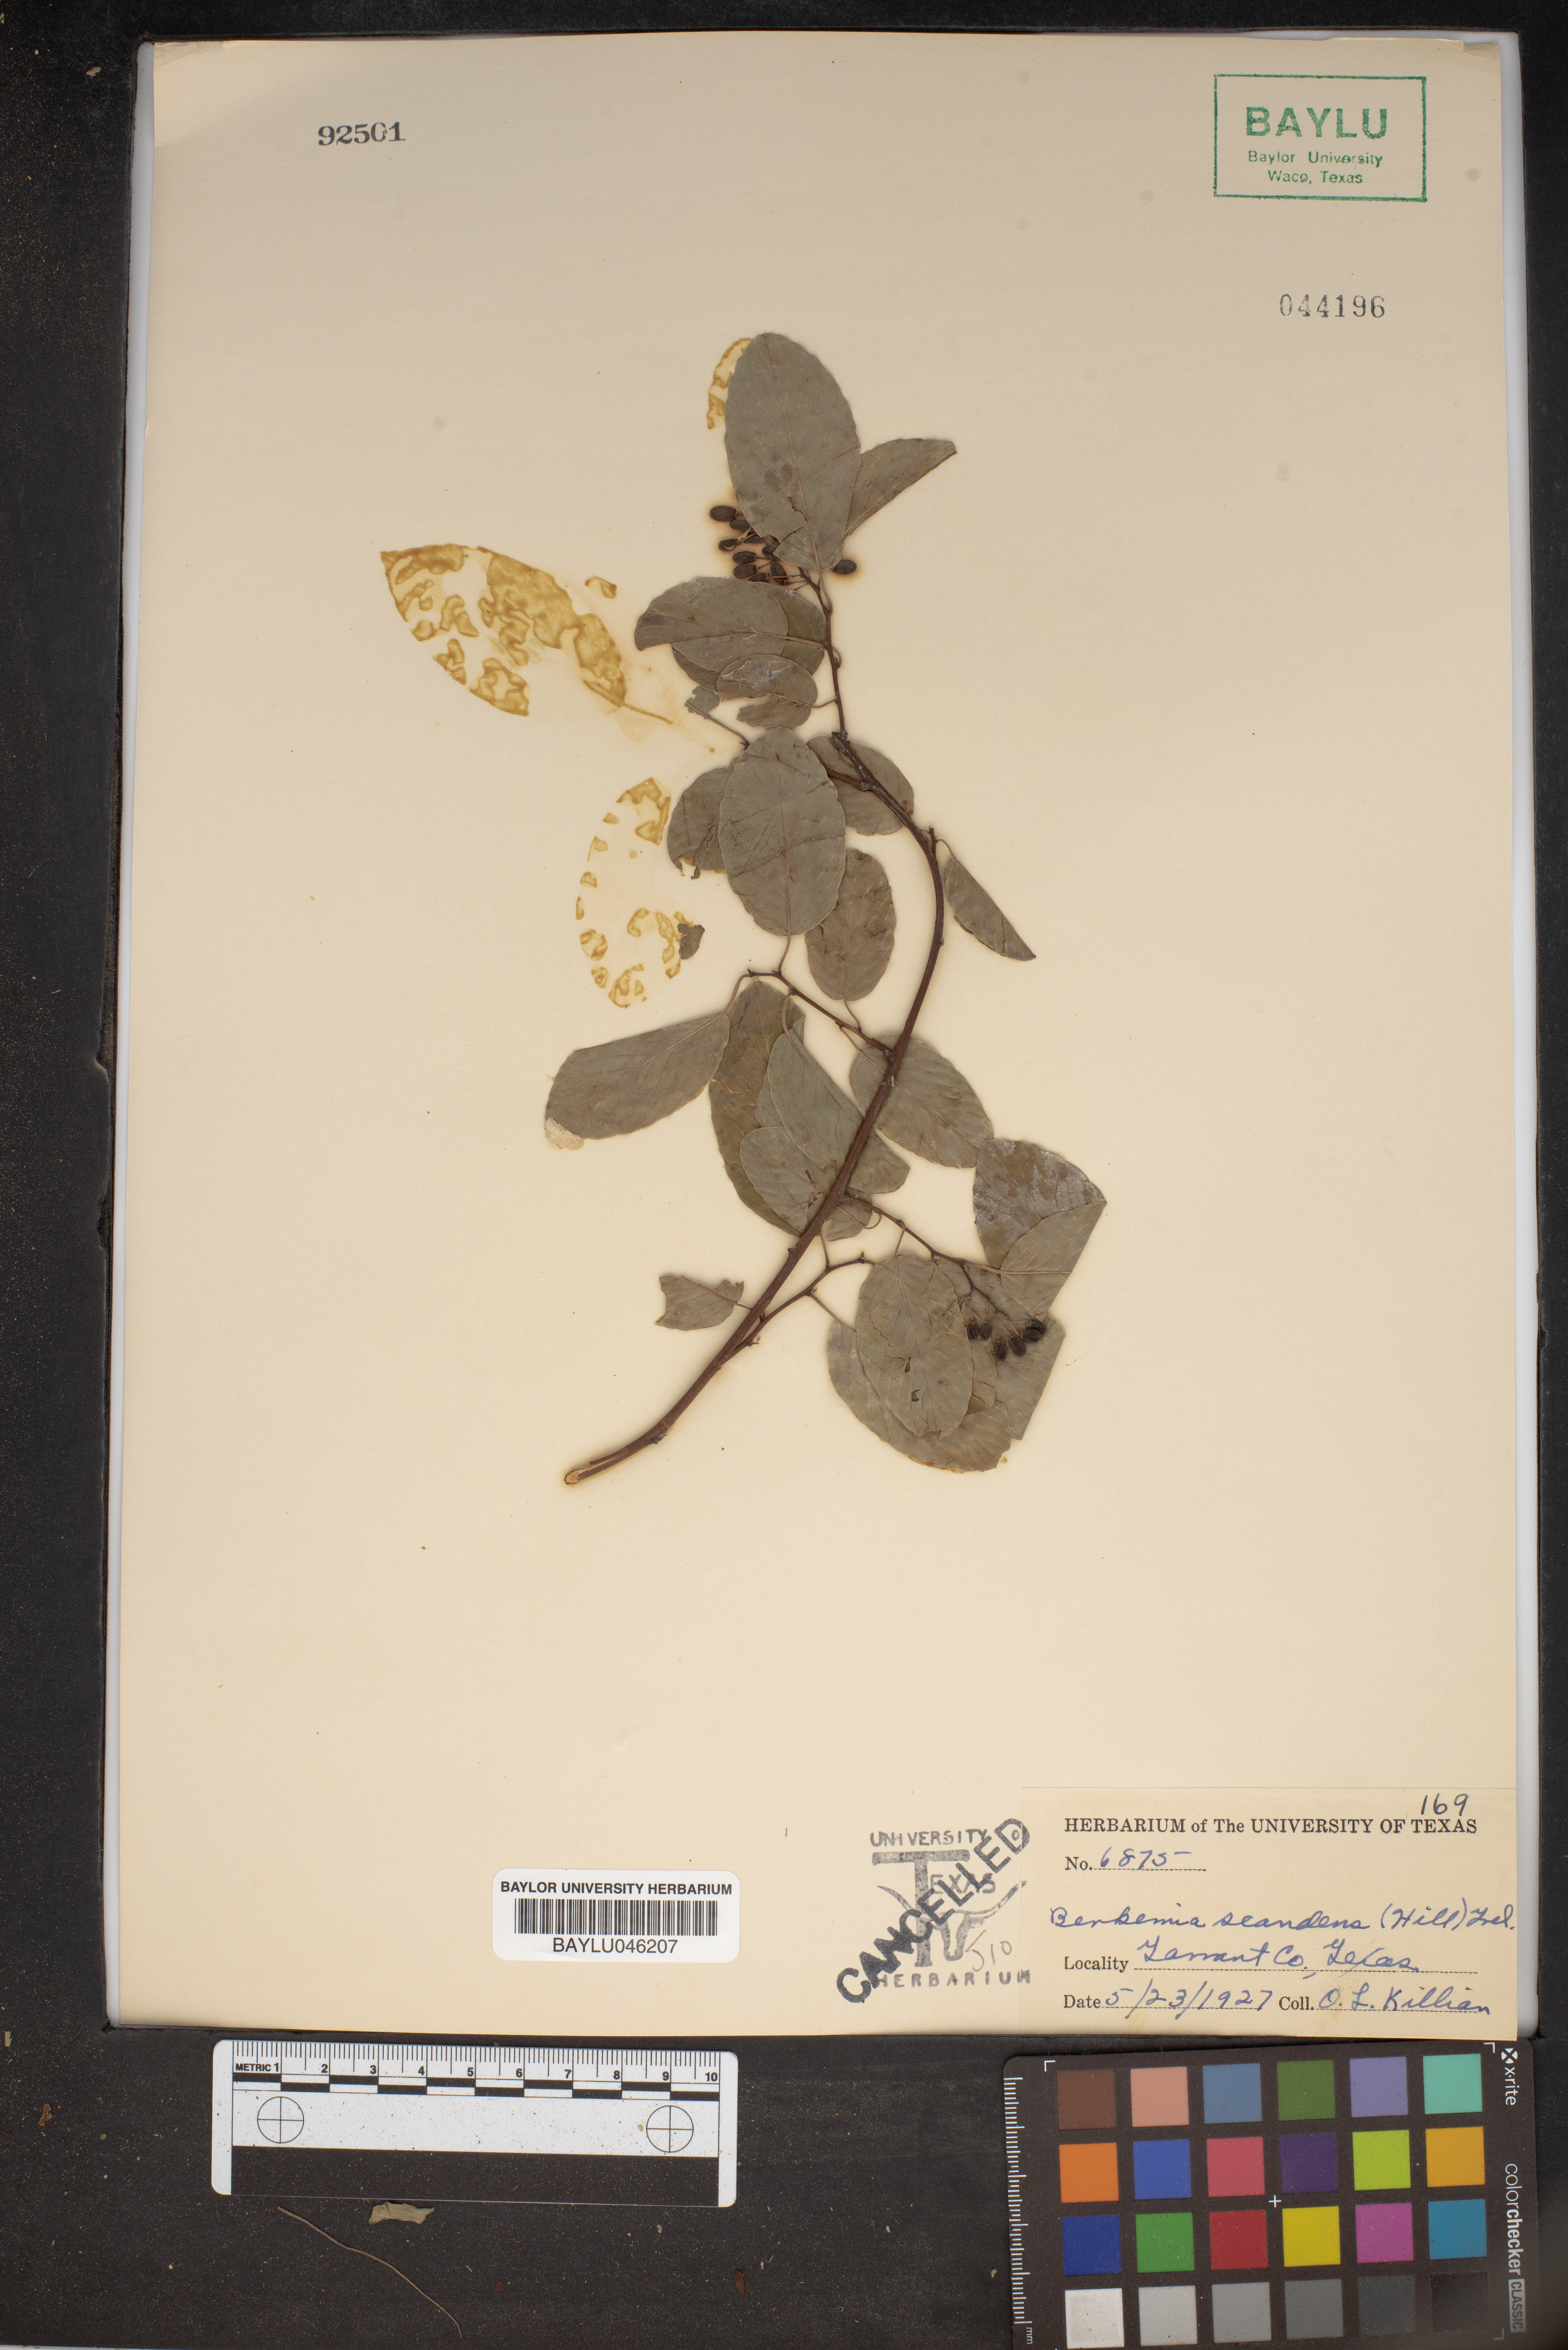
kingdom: Plantae
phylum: Tracheophyta
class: Magnoliopsida
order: Rosales
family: Rhamnaceae
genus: Berchemia
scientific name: Berchemia scandens
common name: Supplejack
